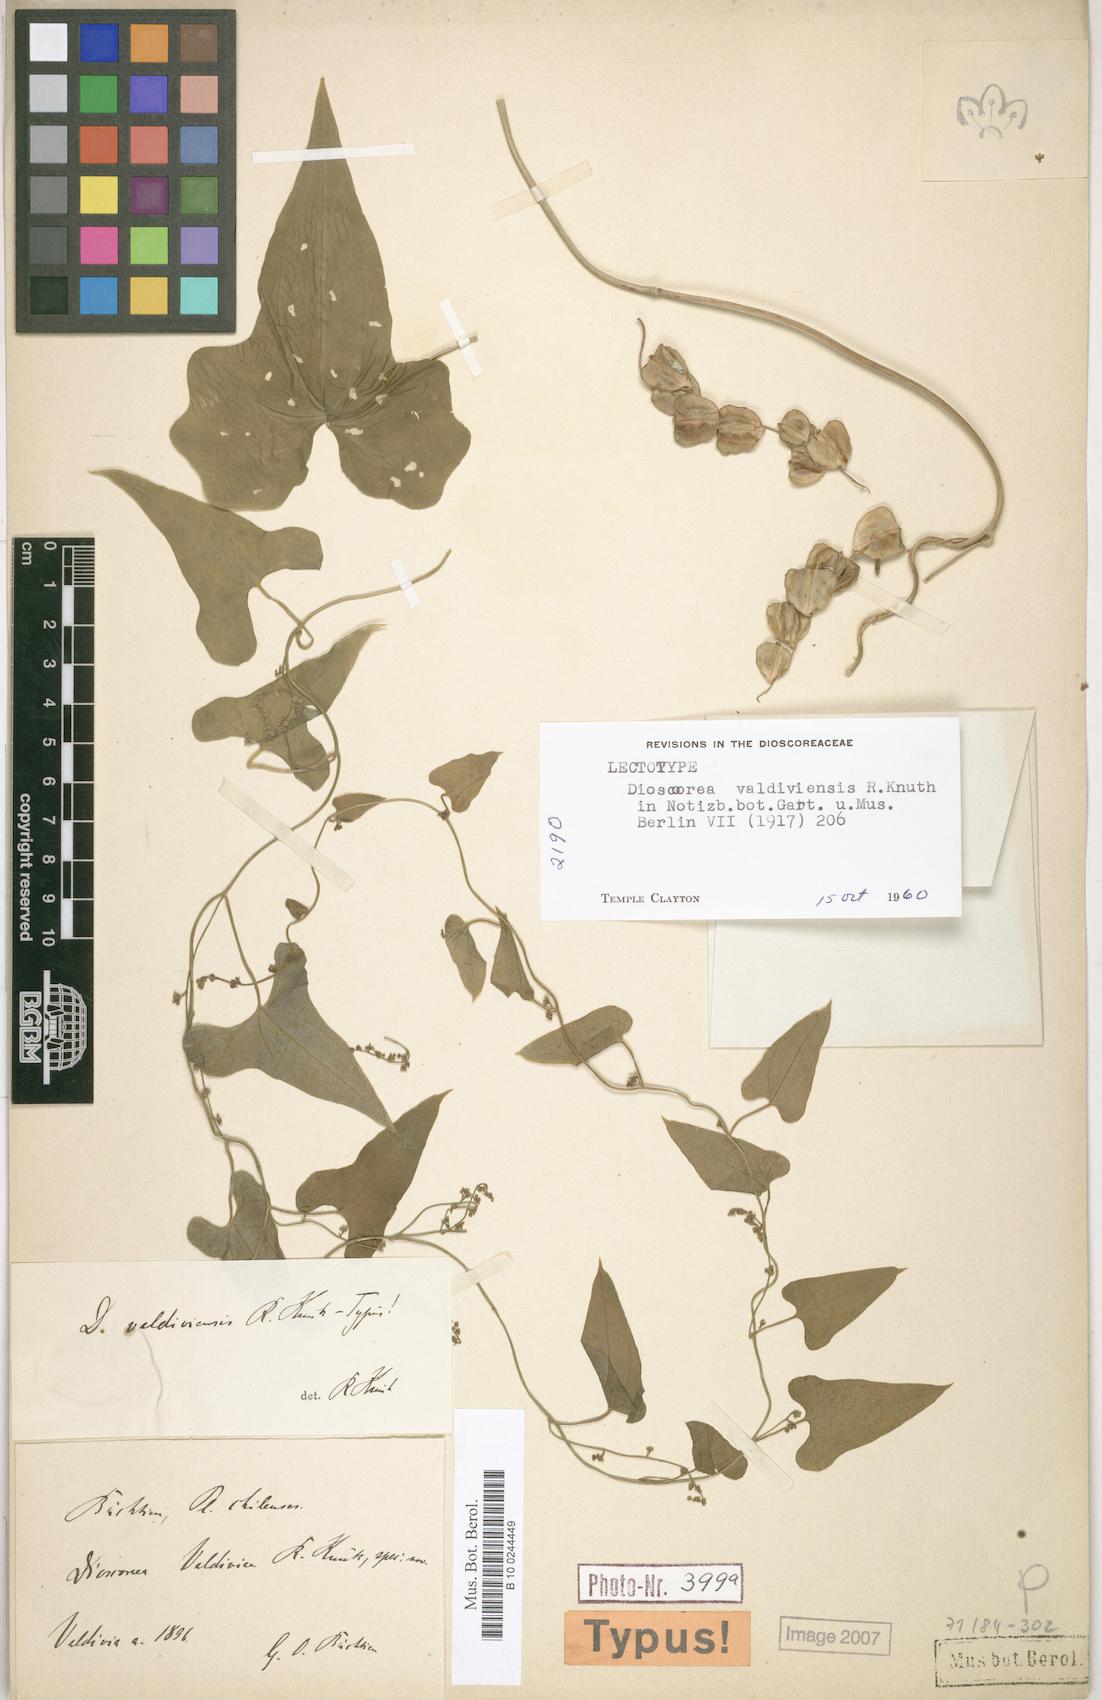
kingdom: Plantae
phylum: Tracheophyta
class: Liliopsida
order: Dioscoreales
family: Dioscoreaceae
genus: Dioscorea
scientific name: Dioscorea valdiviensis
